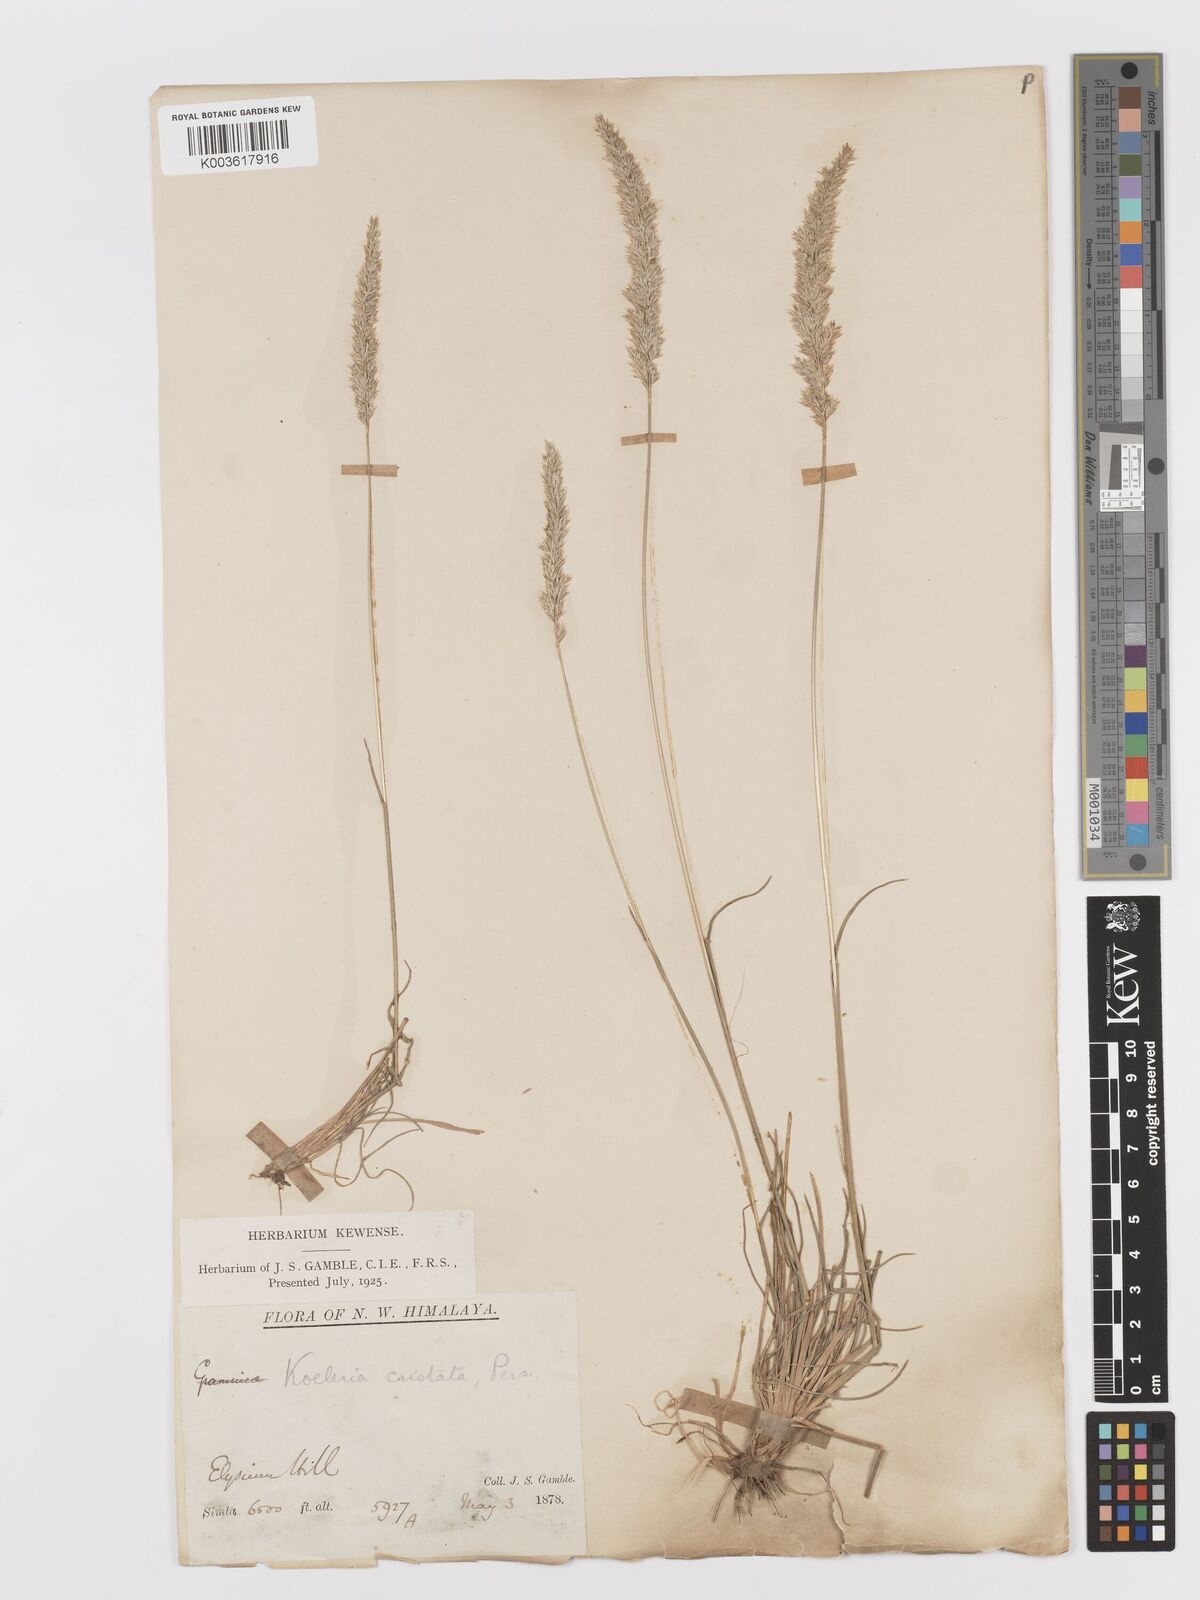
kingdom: Plantae
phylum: Tracheophyta
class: Liliopsida
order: Poales
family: Poaceae
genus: Koeleria
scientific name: Koeleria
